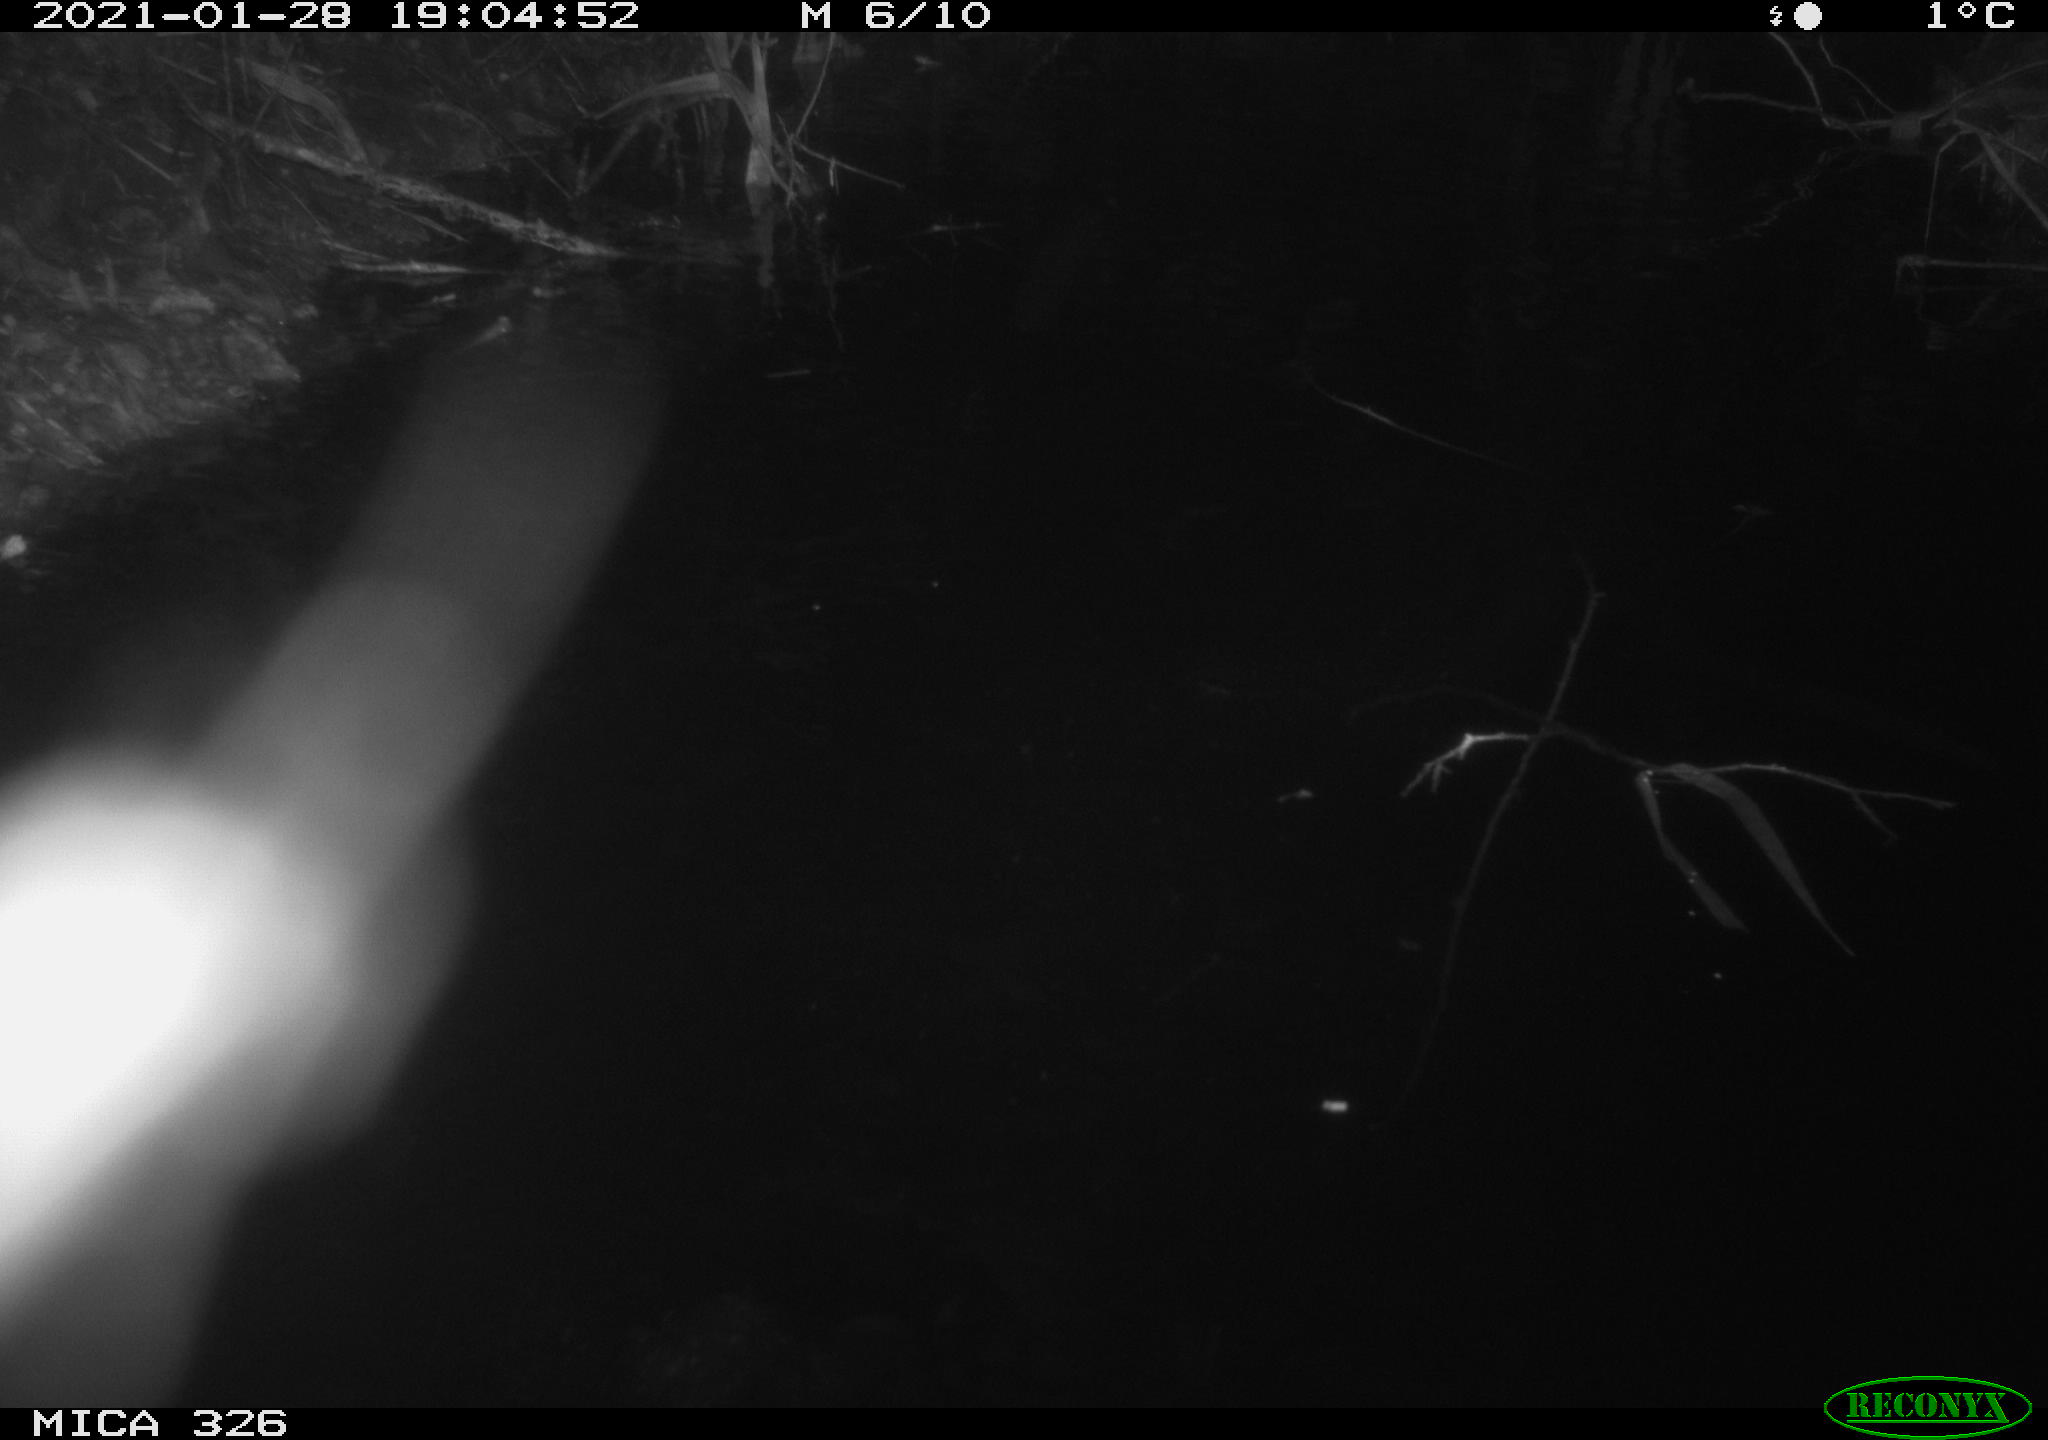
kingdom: Animalia
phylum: Chordata
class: Mammalia
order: Rodentia
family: Myocastoridae
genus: Myocastor
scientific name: Myocastor coypus
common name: Coypu
